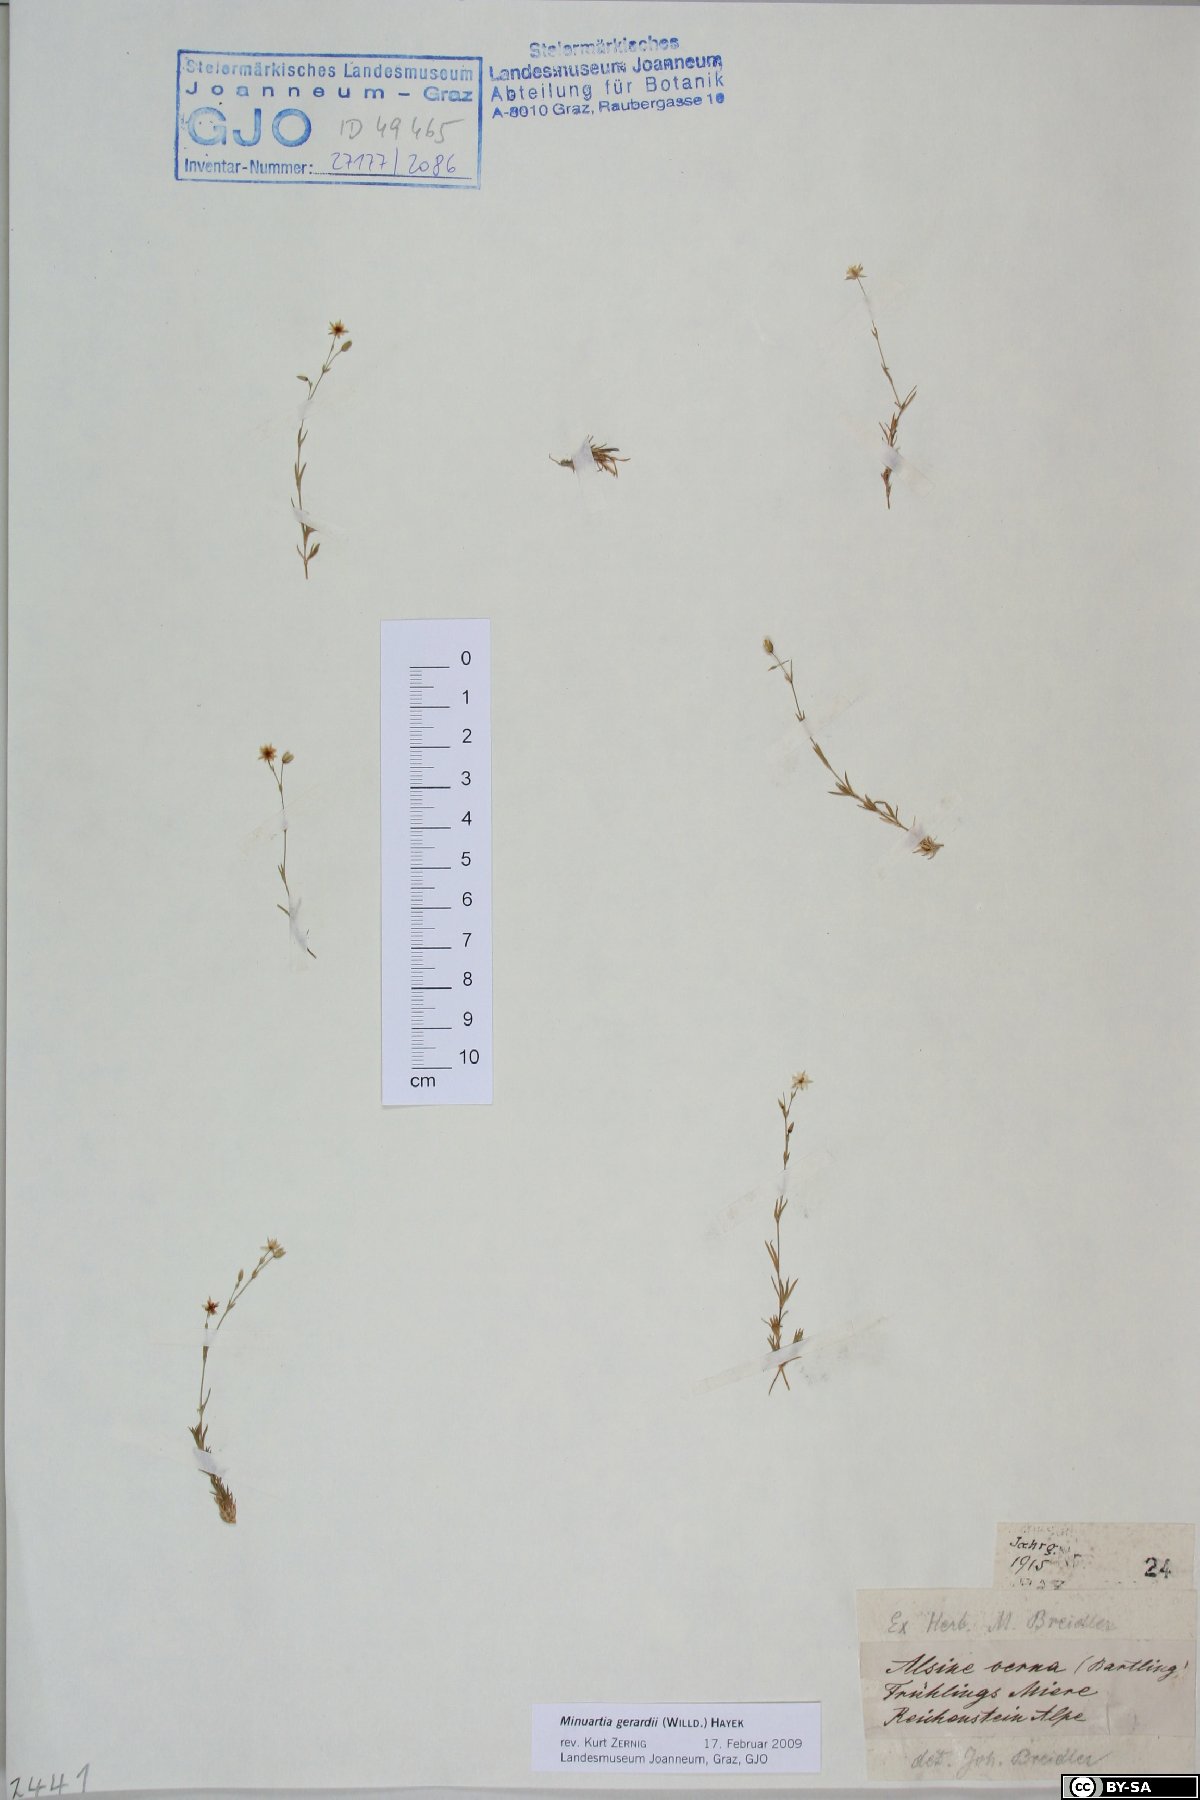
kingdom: Plantae
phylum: Tracheophyta
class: Magnoliopsida
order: Caryophyllales
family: Caryophyllaceae
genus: Sabulina
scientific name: Sabulina verna
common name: Spring sandwort
